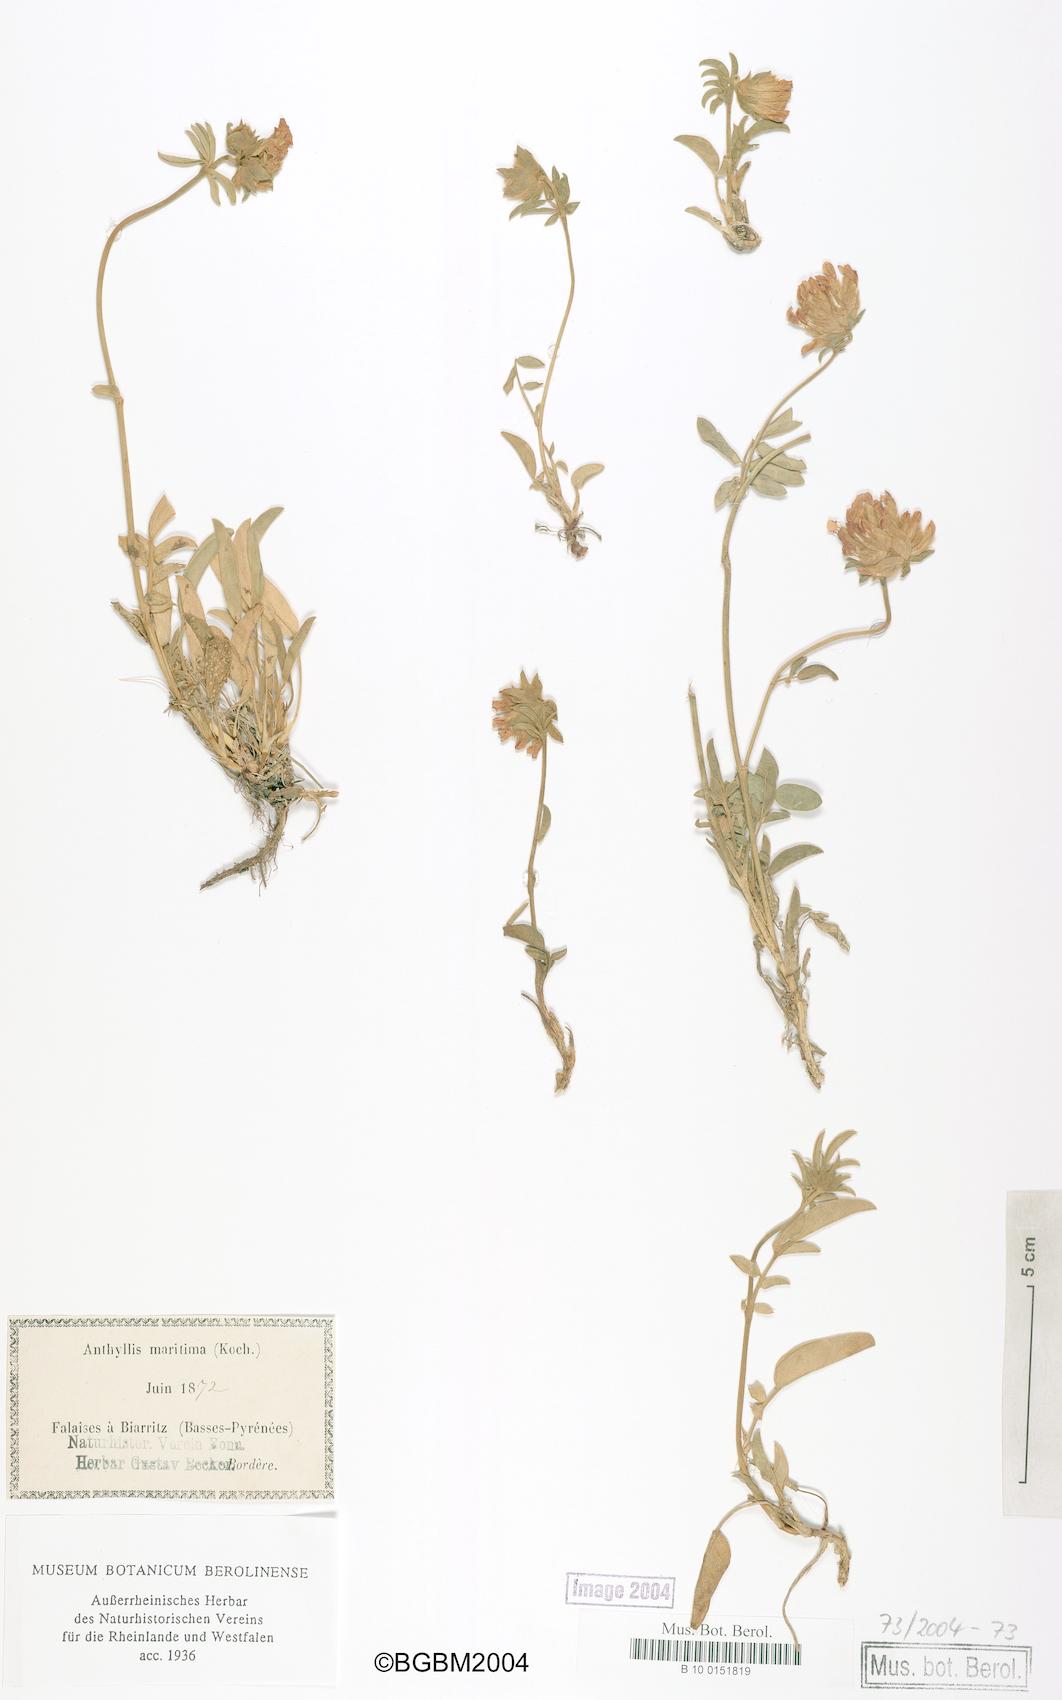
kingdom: Plantae
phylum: Tracheophyta
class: Magnoliopsida
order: Fabales
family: Fabaceae
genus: Anthyllis
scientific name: Anthyllis vulneraria
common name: Kidney vetch
